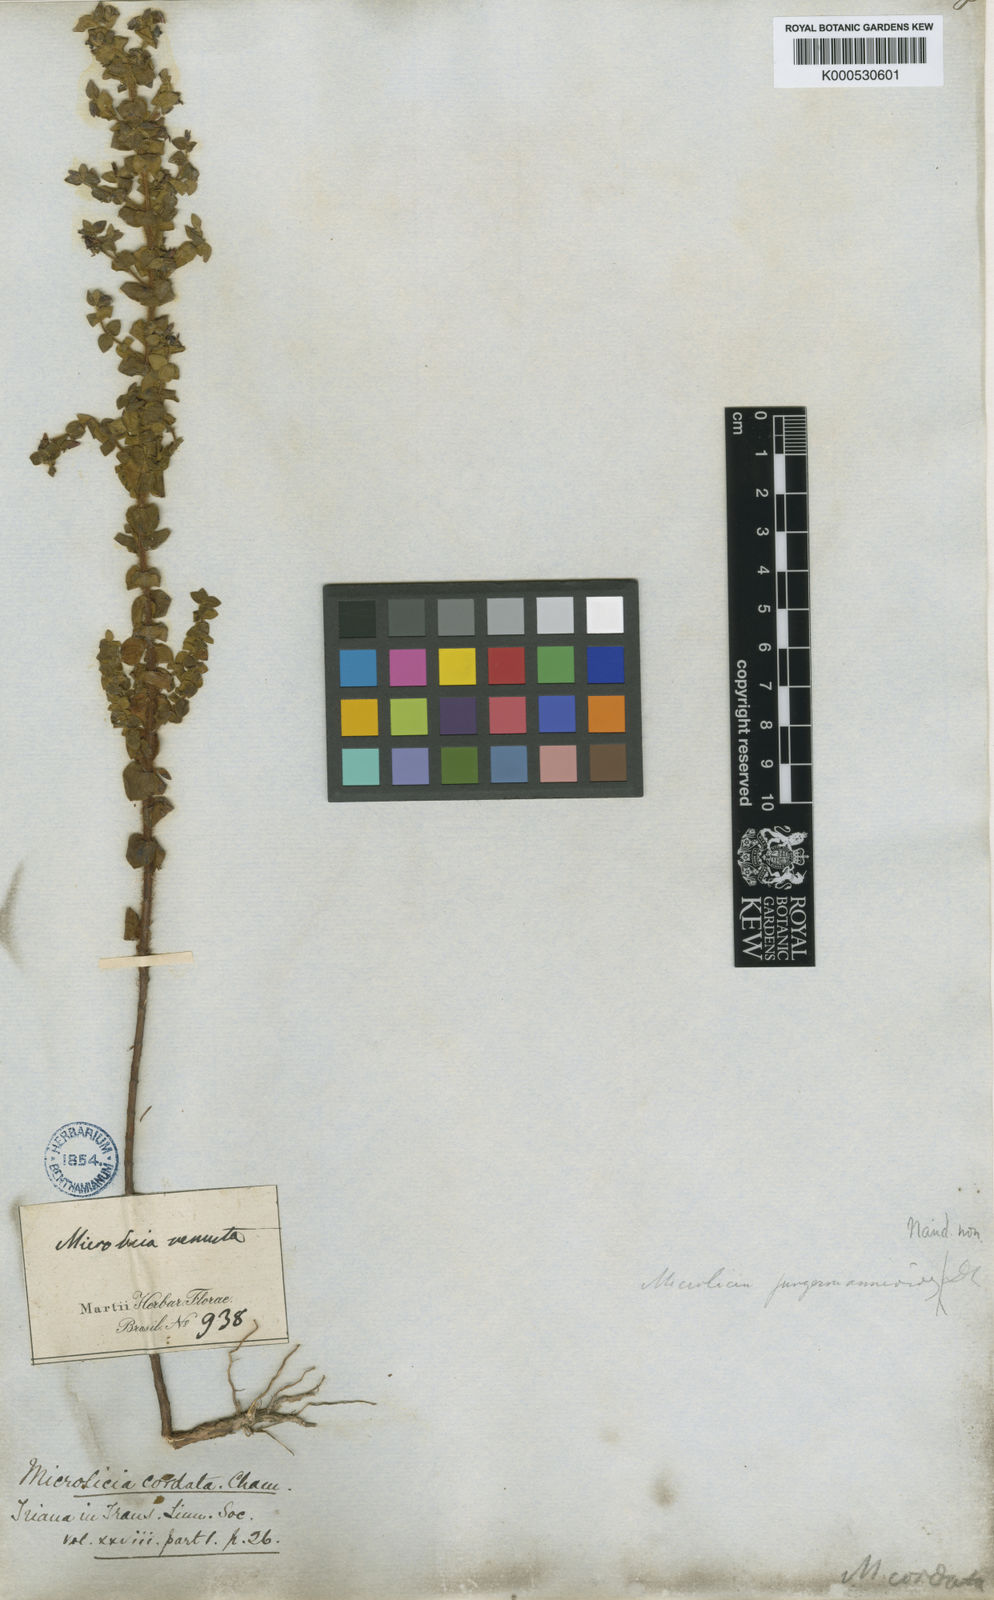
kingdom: Plantae
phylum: Tracheophyta
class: Magnoliopsida
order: Myrtales
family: Melastomataceae
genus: Microlicia
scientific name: Microlicia cordata
